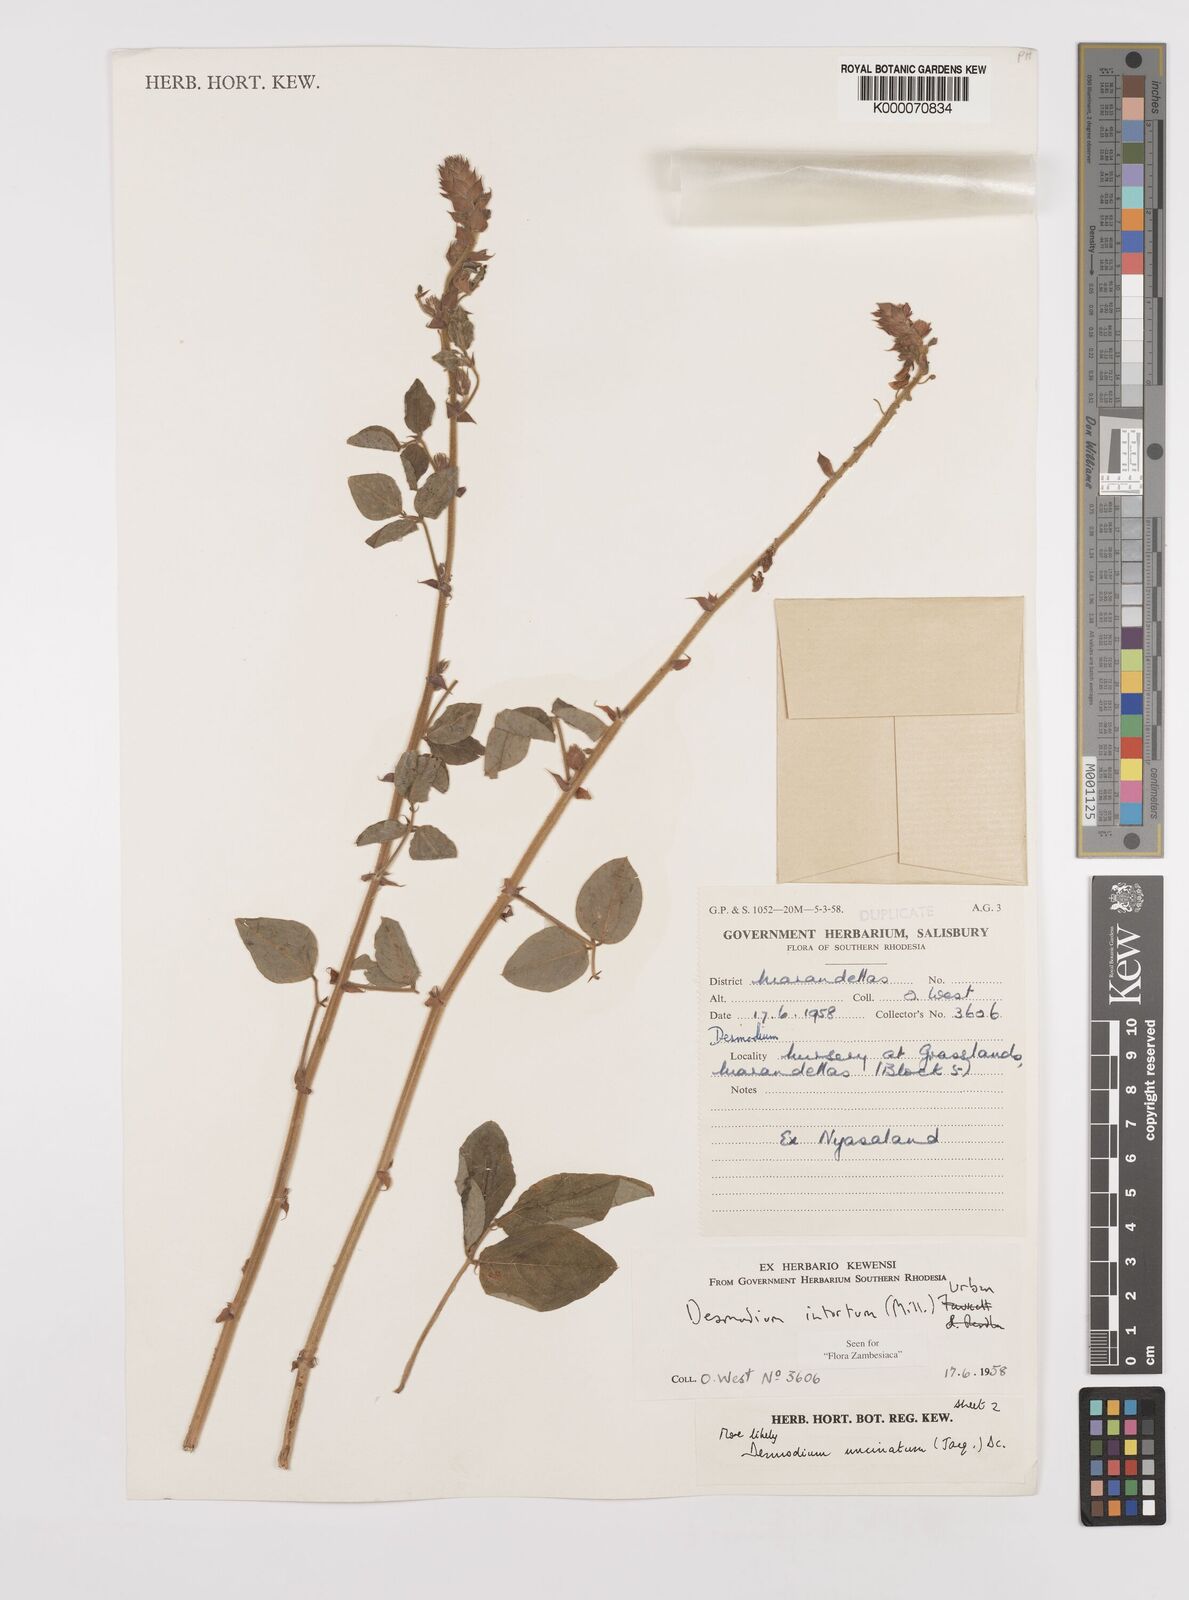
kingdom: Plantae
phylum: Tracheophyta
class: Magnoliopsida
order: Fabales
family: Fabaceae
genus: Desmodium
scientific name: Desmodium intortum
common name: Greenleaf ticktrefoil
